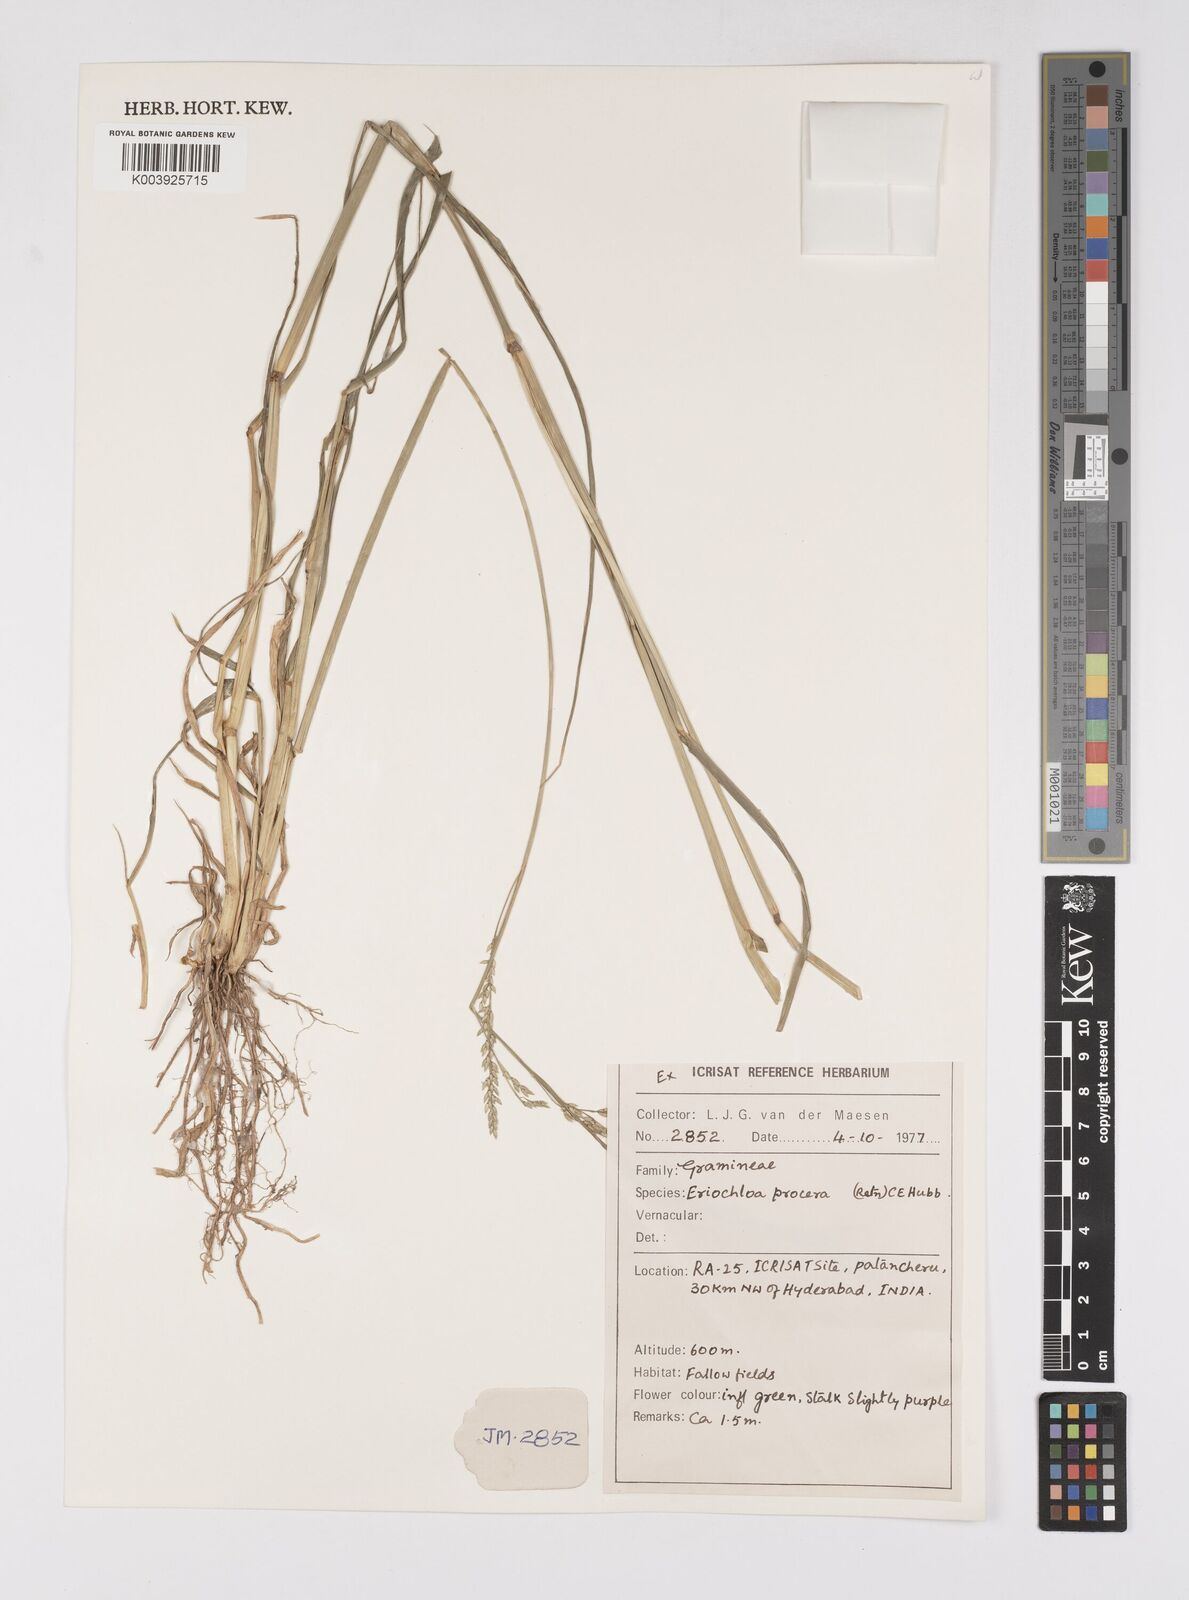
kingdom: Plantae
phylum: Tracheophyta
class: Liliopsida
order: Poales
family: Poaceae
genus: Eriochloa
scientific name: Eriochloa procera
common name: Spring grass
